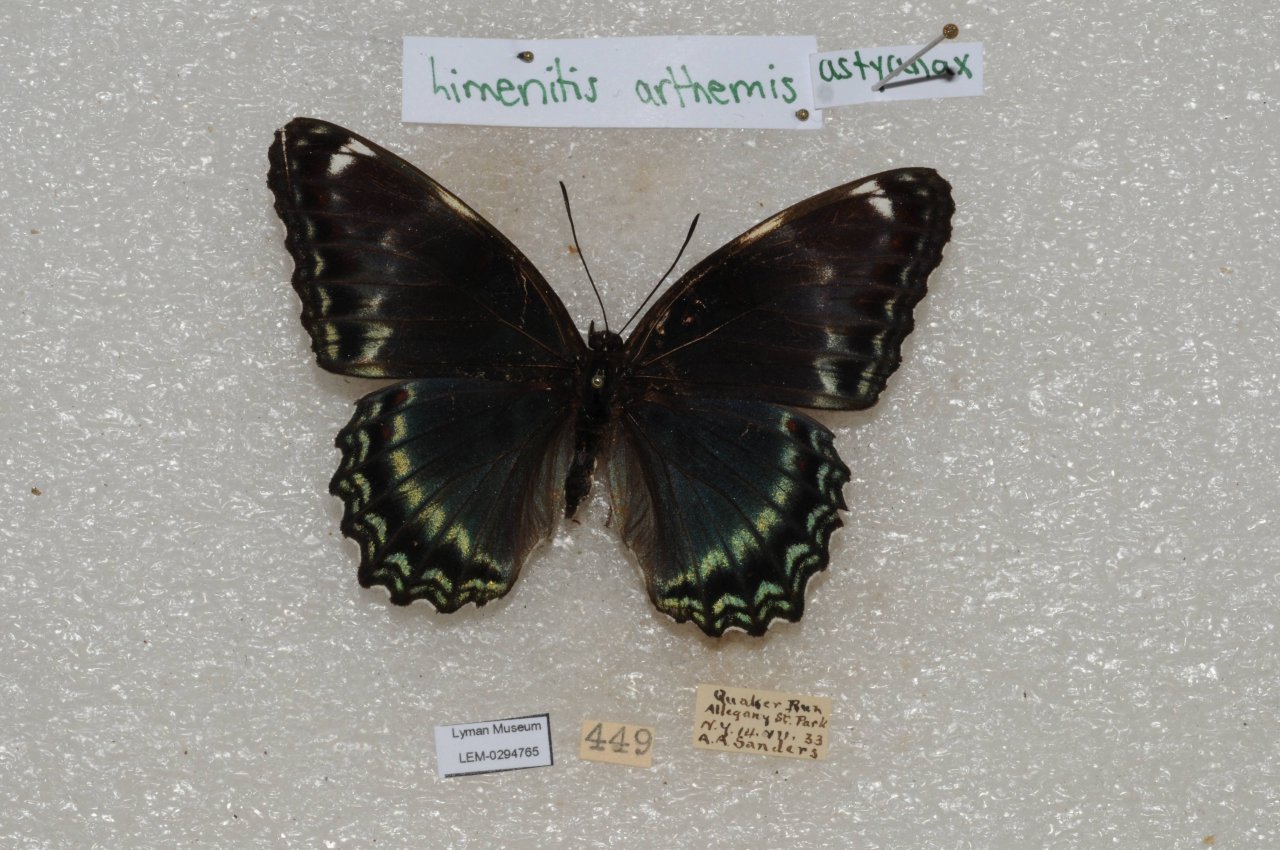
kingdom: Animalia
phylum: Arthropoda
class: Insecta
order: Lepidoptera
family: Nymphalidae
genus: Limenitis
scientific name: Limenitis
